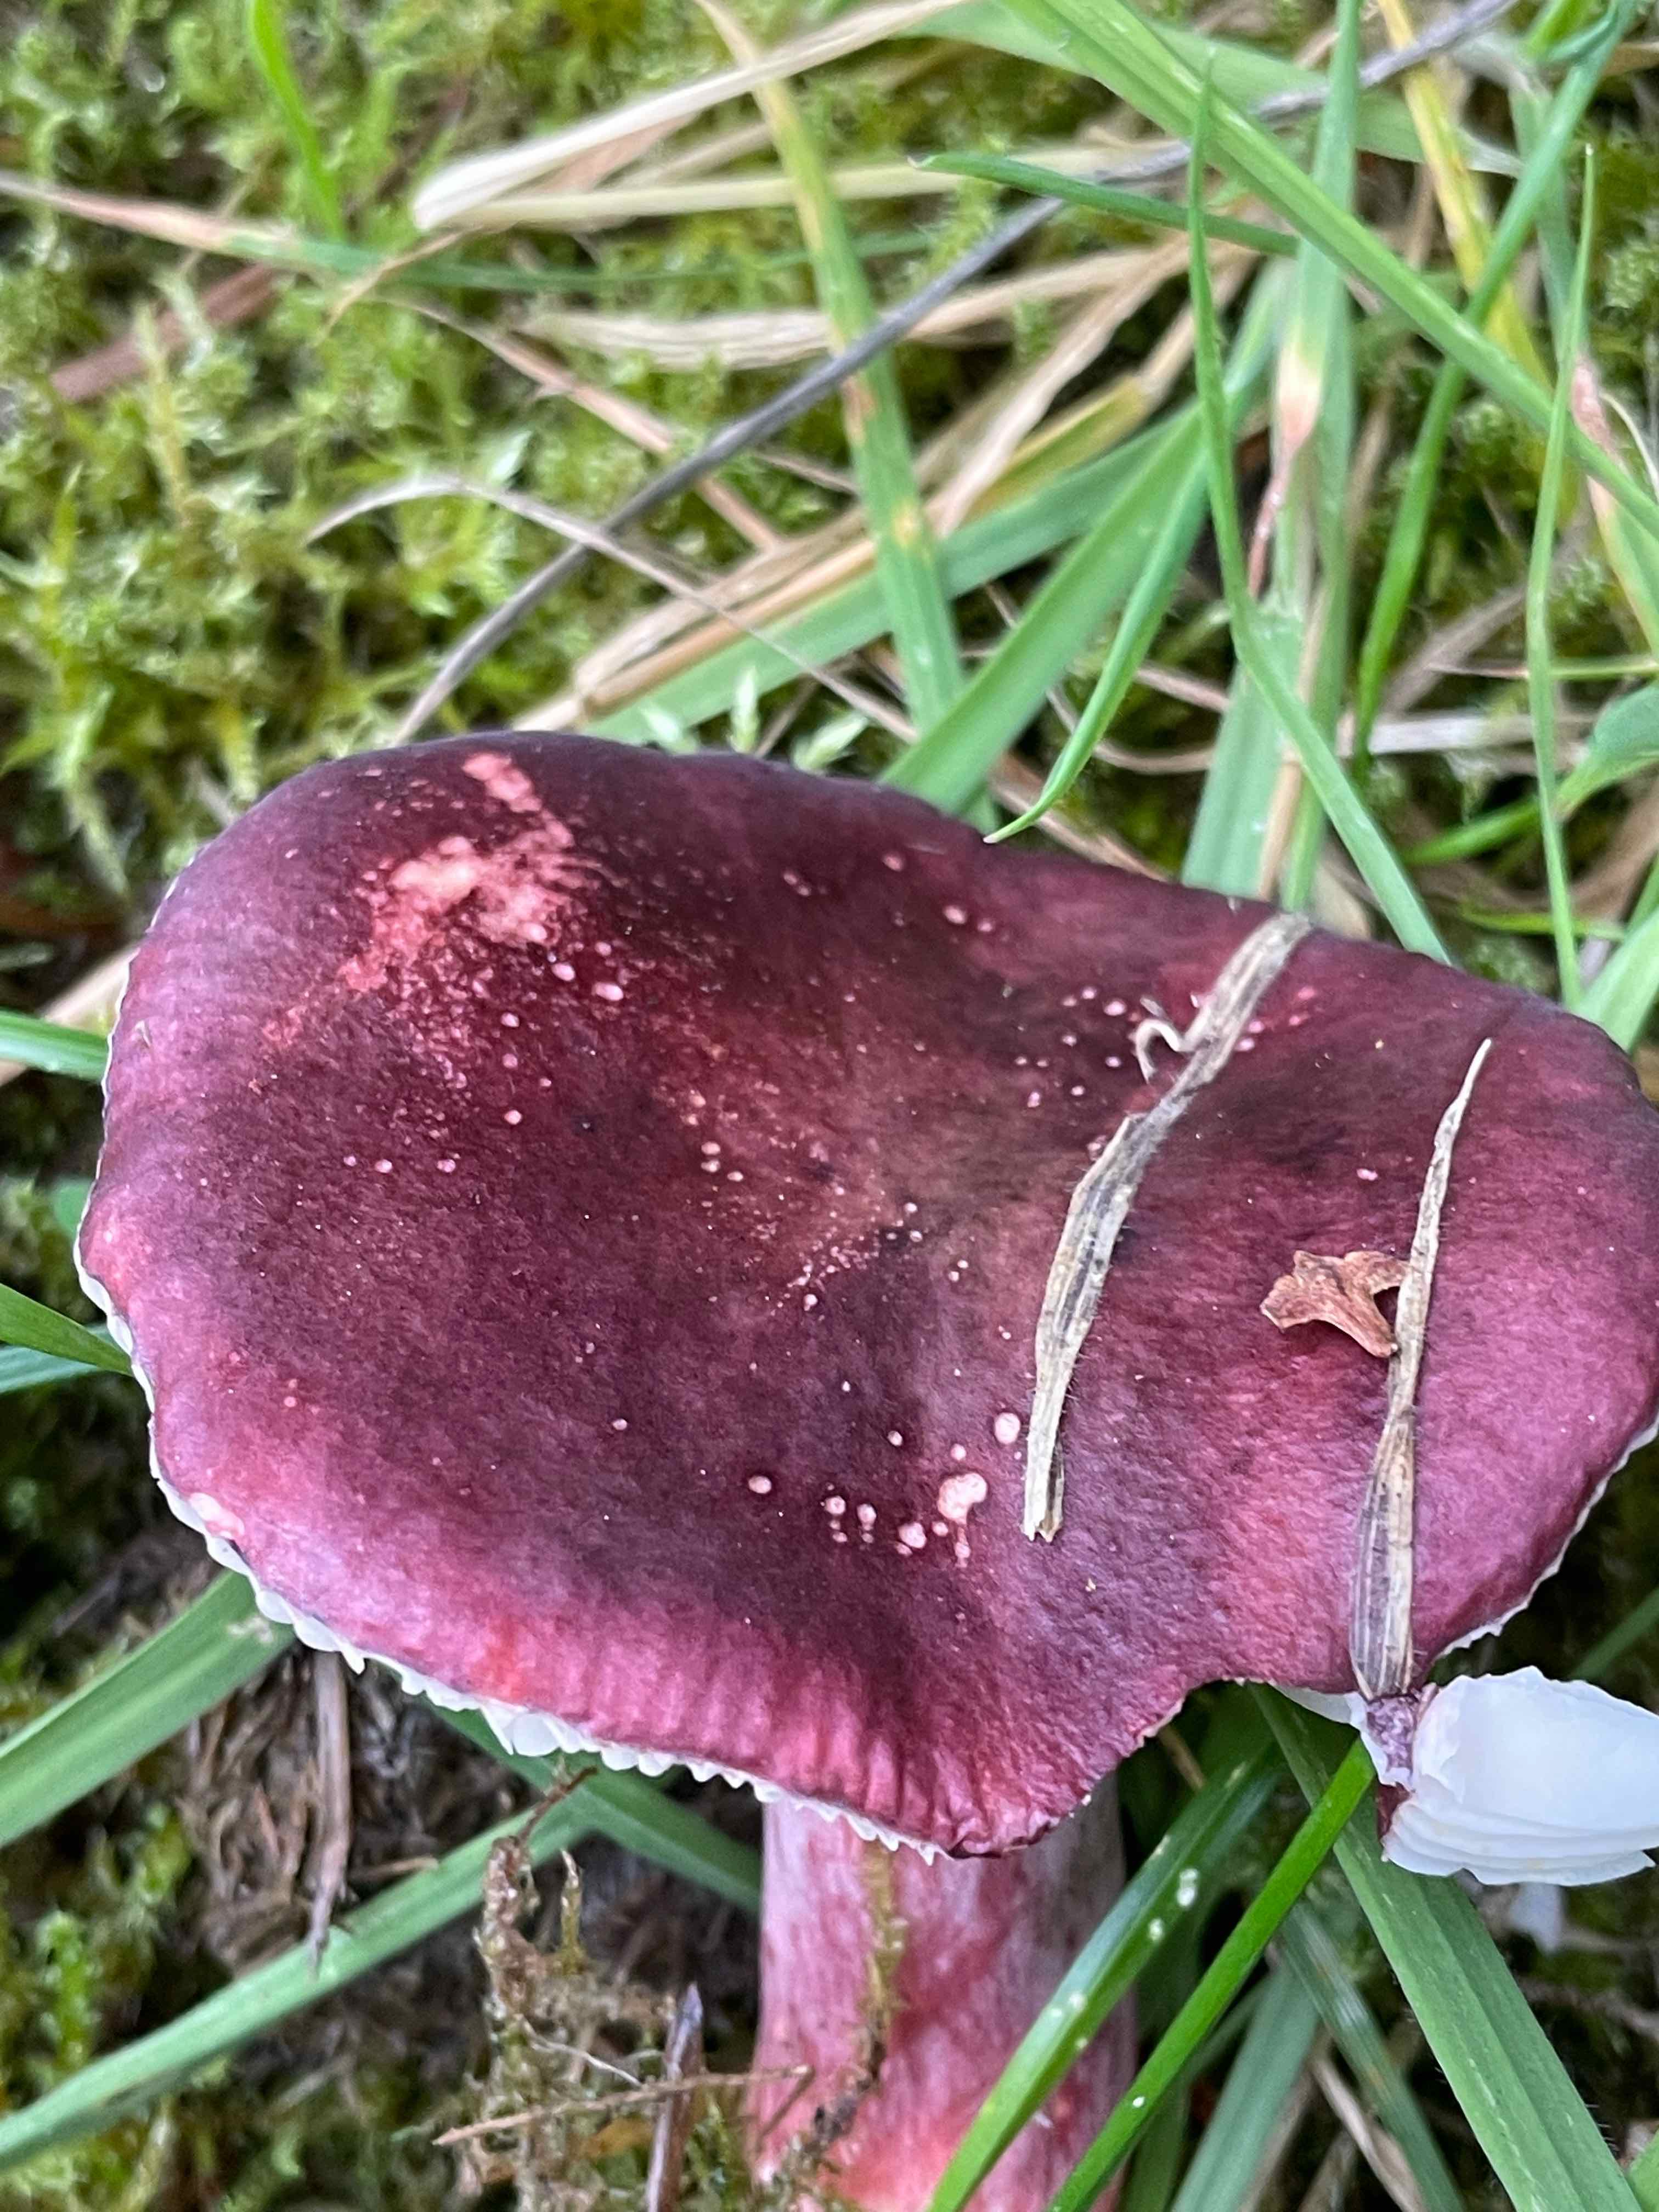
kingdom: Fungi
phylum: Basidiomycota
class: Agaricomycetes
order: Russulales
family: Russulaceae
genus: Russula
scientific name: Russula queletii
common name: Quélets skørhat
